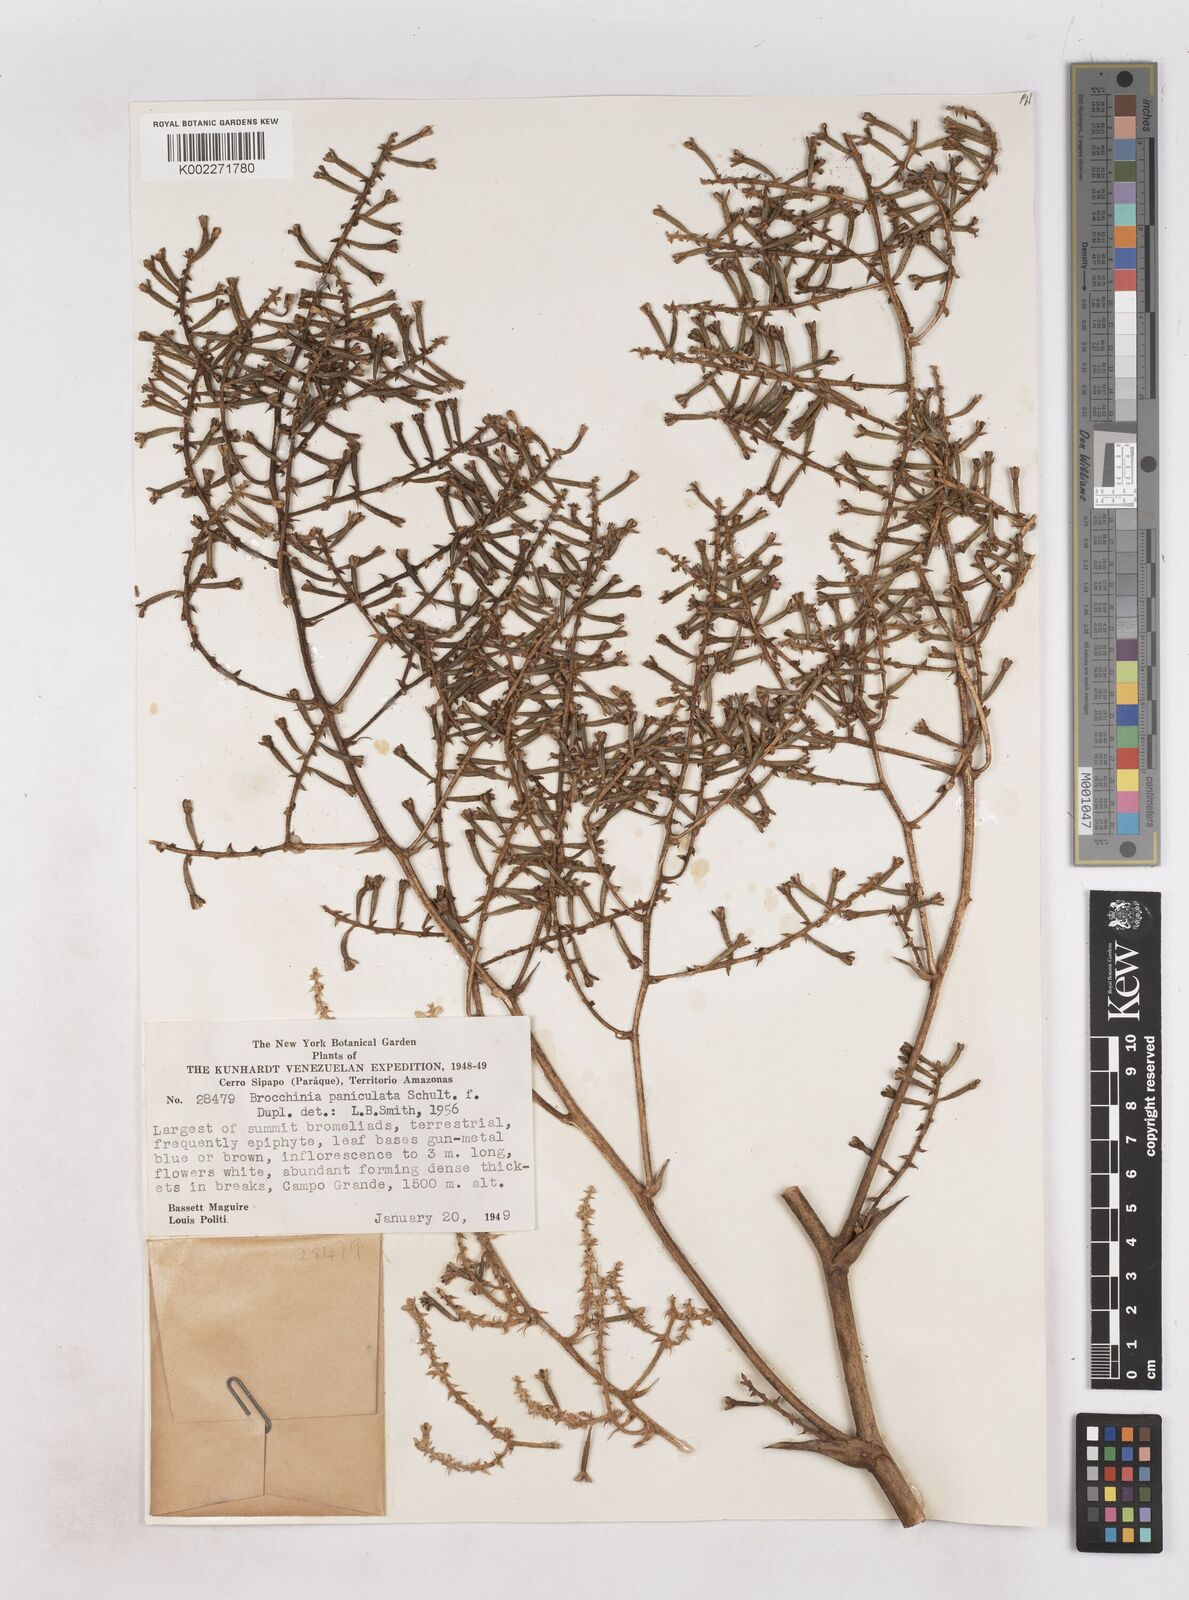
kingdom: Plantae
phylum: Tracheophyta
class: Liliopsida
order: Poales
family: Bromeliaceae
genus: Brocchinia
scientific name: Brocchinia paniculata
